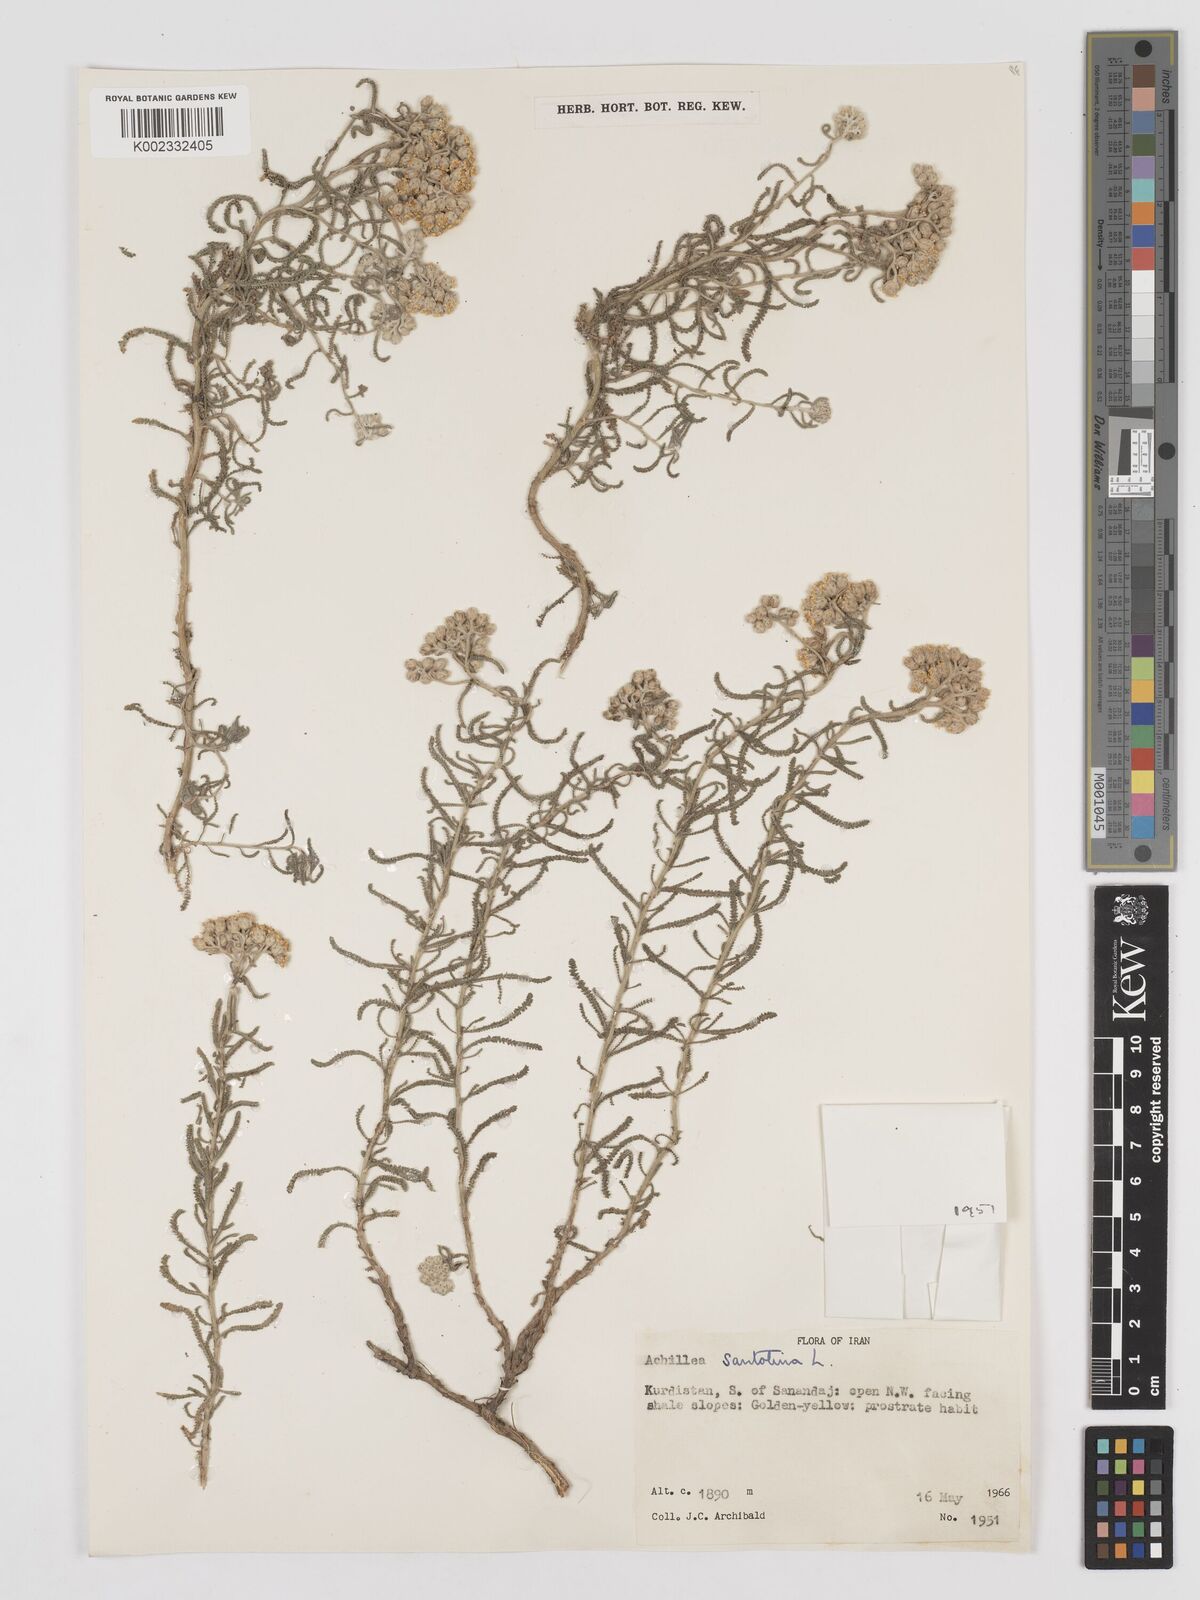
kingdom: Plantae
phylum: Tracheophyta
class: Magnoliopsida
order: Asterales
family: Asteraceae
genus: Achillea
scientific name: Achillea cretica
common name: Chamomile-leaved lavender-cotton
